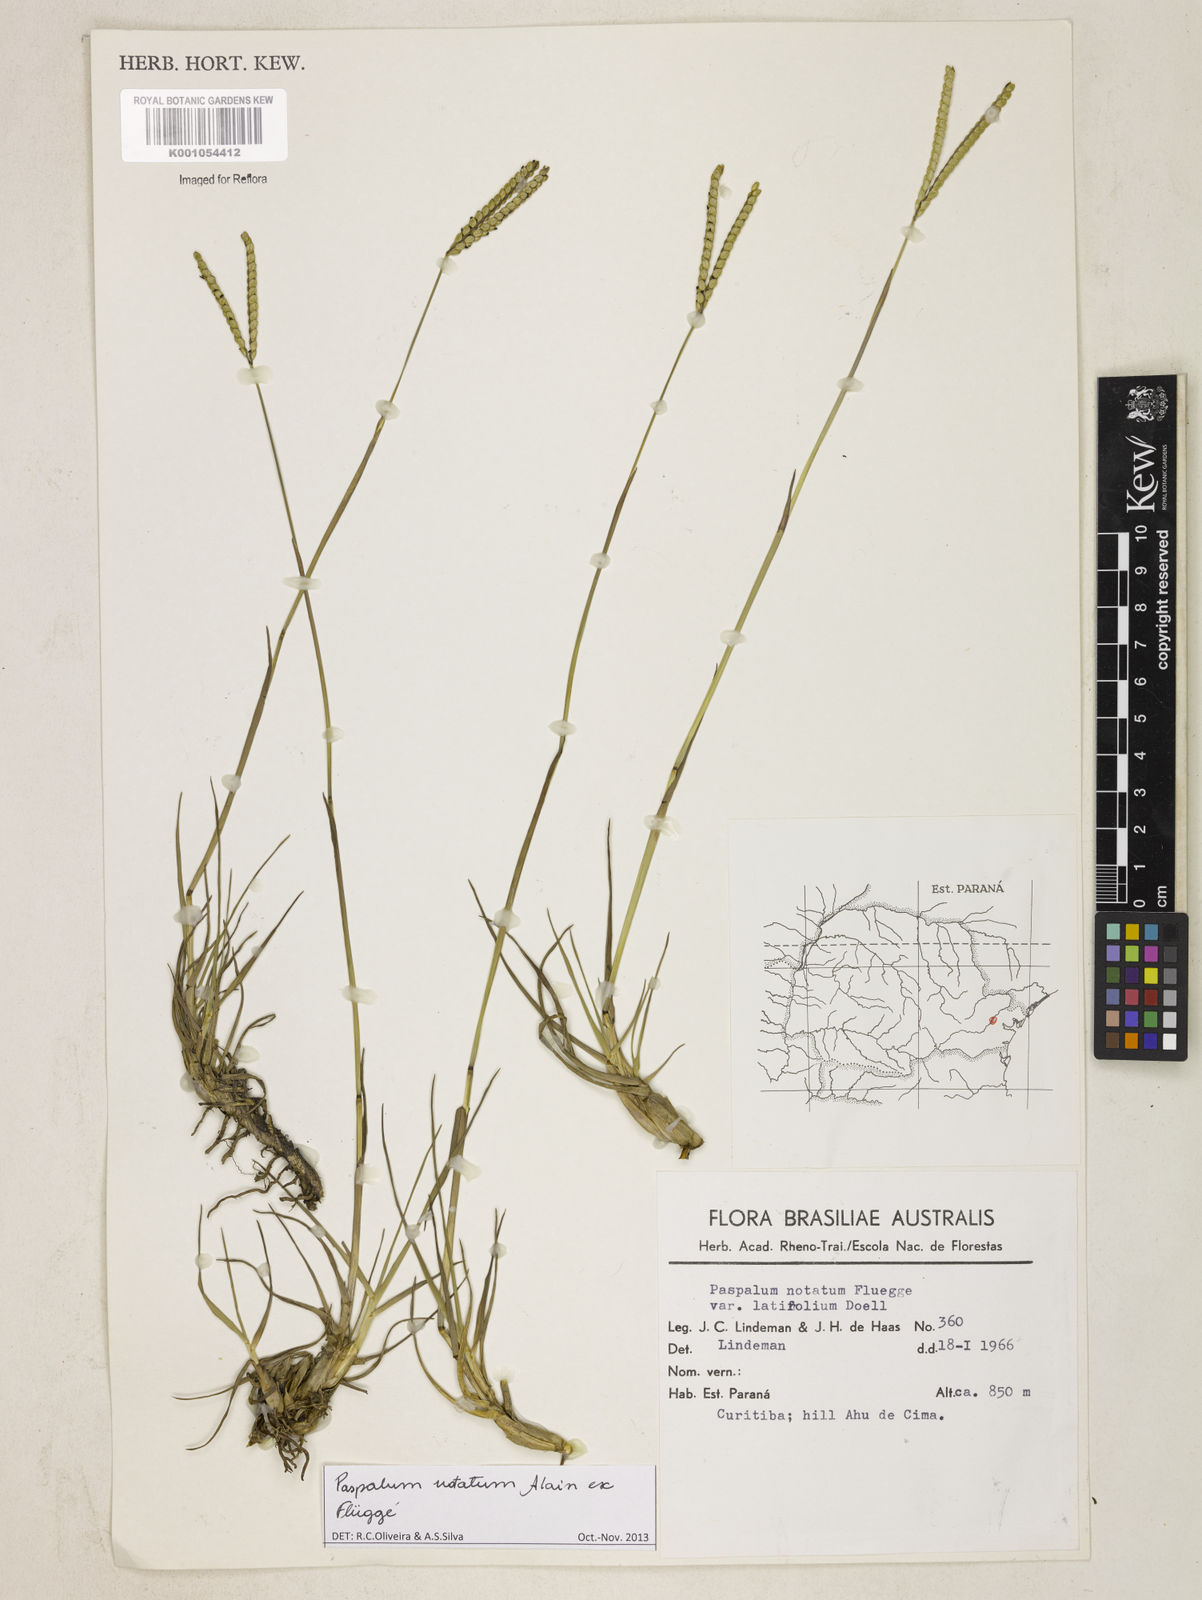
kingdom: Plantae
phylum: Tracheophyta
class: Liliopsida
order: Poales
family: Poaceae
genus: Paspalum
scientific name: Paspalum
